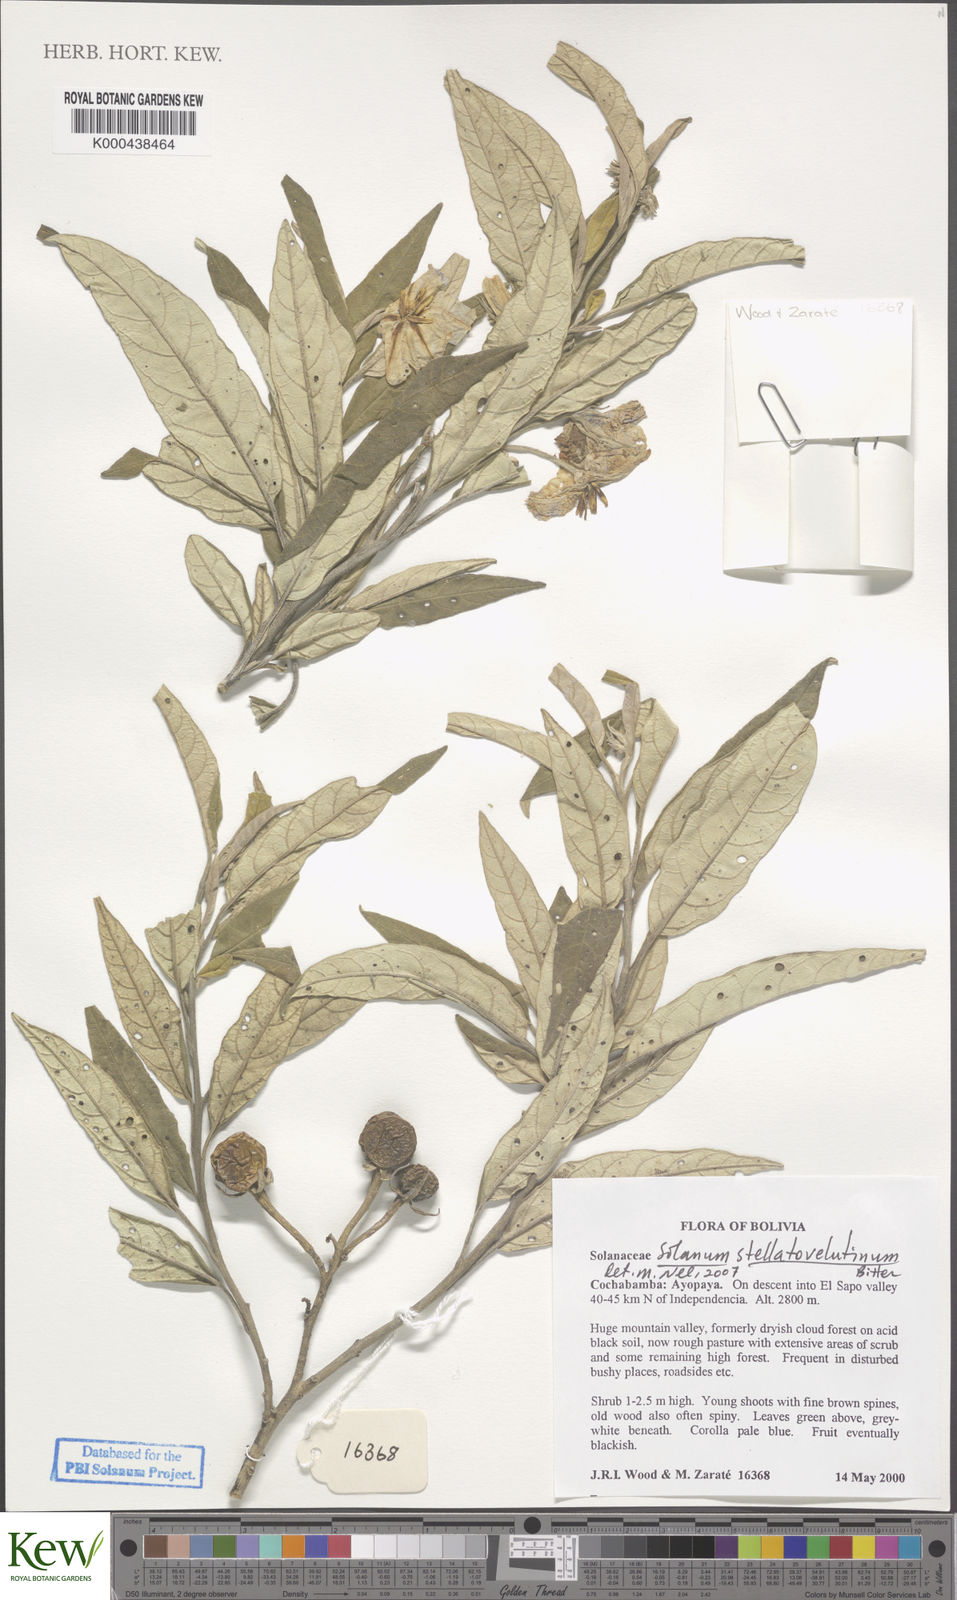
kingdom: Plantae
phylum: Tracheophyta
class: Magnoliopsida
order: Solanales
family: Solanaceae
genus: Solanum
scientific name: Solanum stellativelutinum
